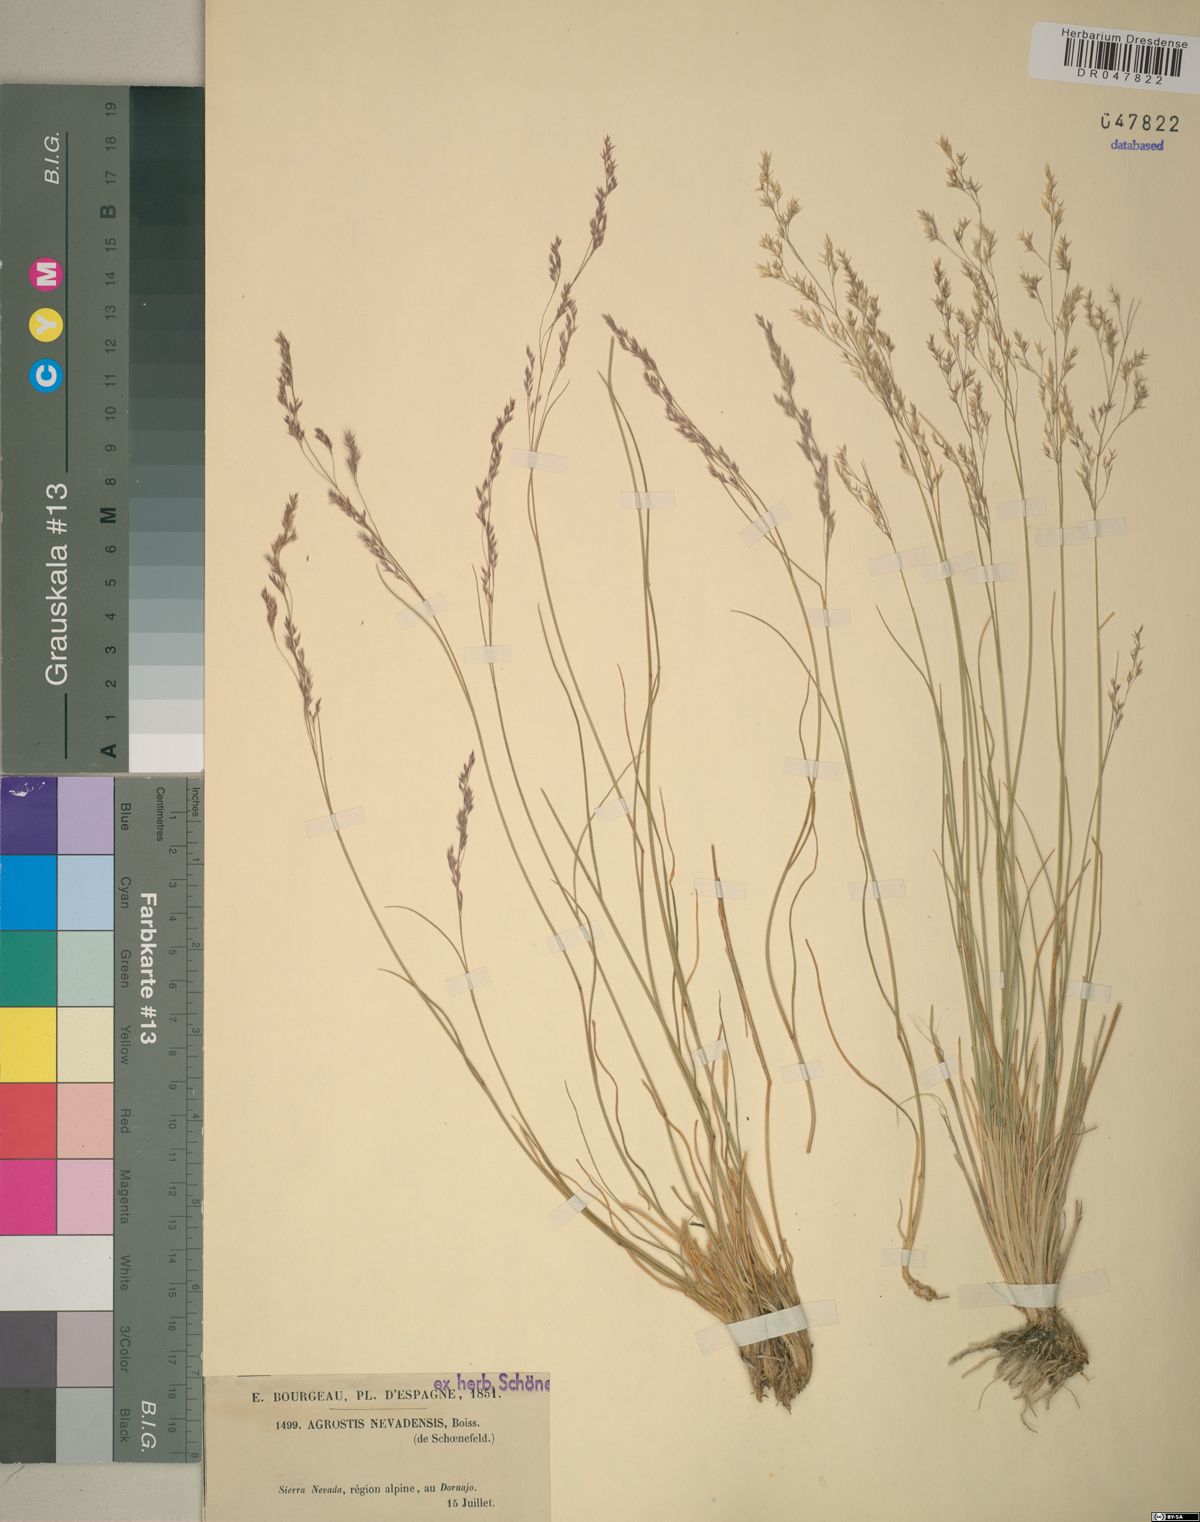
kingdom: Plantae
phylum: Tracheophyta
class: Liliopsida
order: Poales
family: Poaceae
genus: Agrostis
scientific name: Agrostis nevadensis
